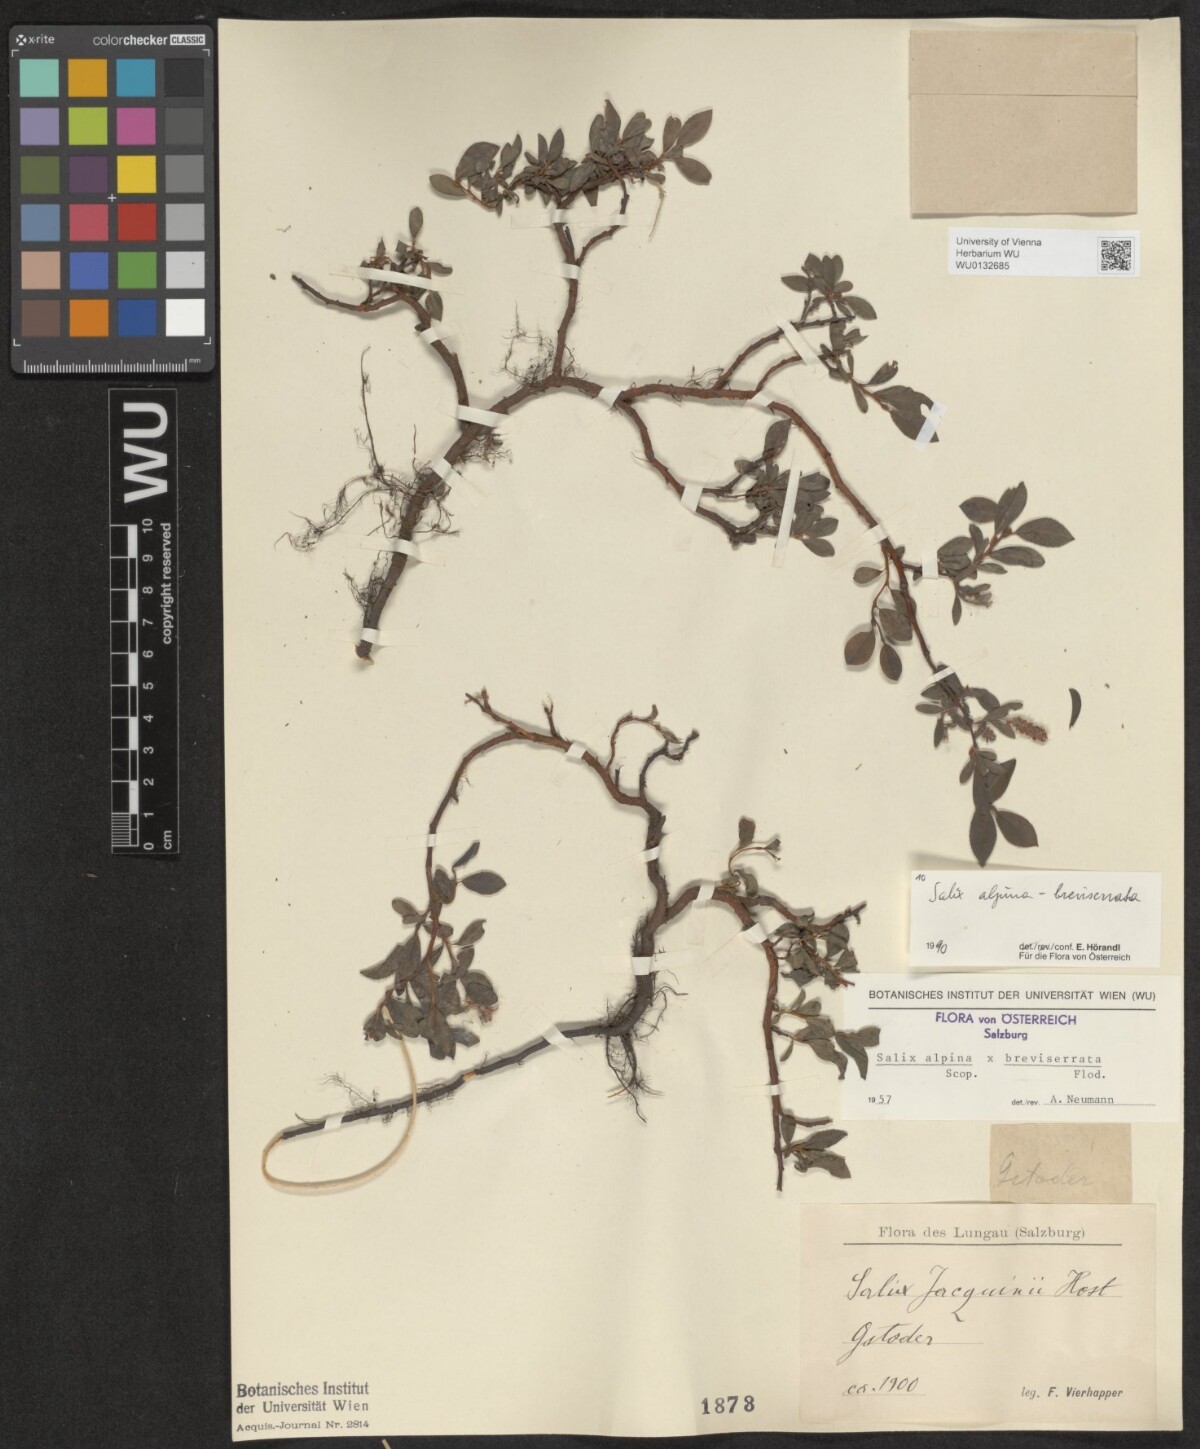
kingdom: Plantae
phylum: Tracheophyta
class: Magnoliopsida
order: Malpighiales
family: Salicaceae
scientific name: Salicaceae
